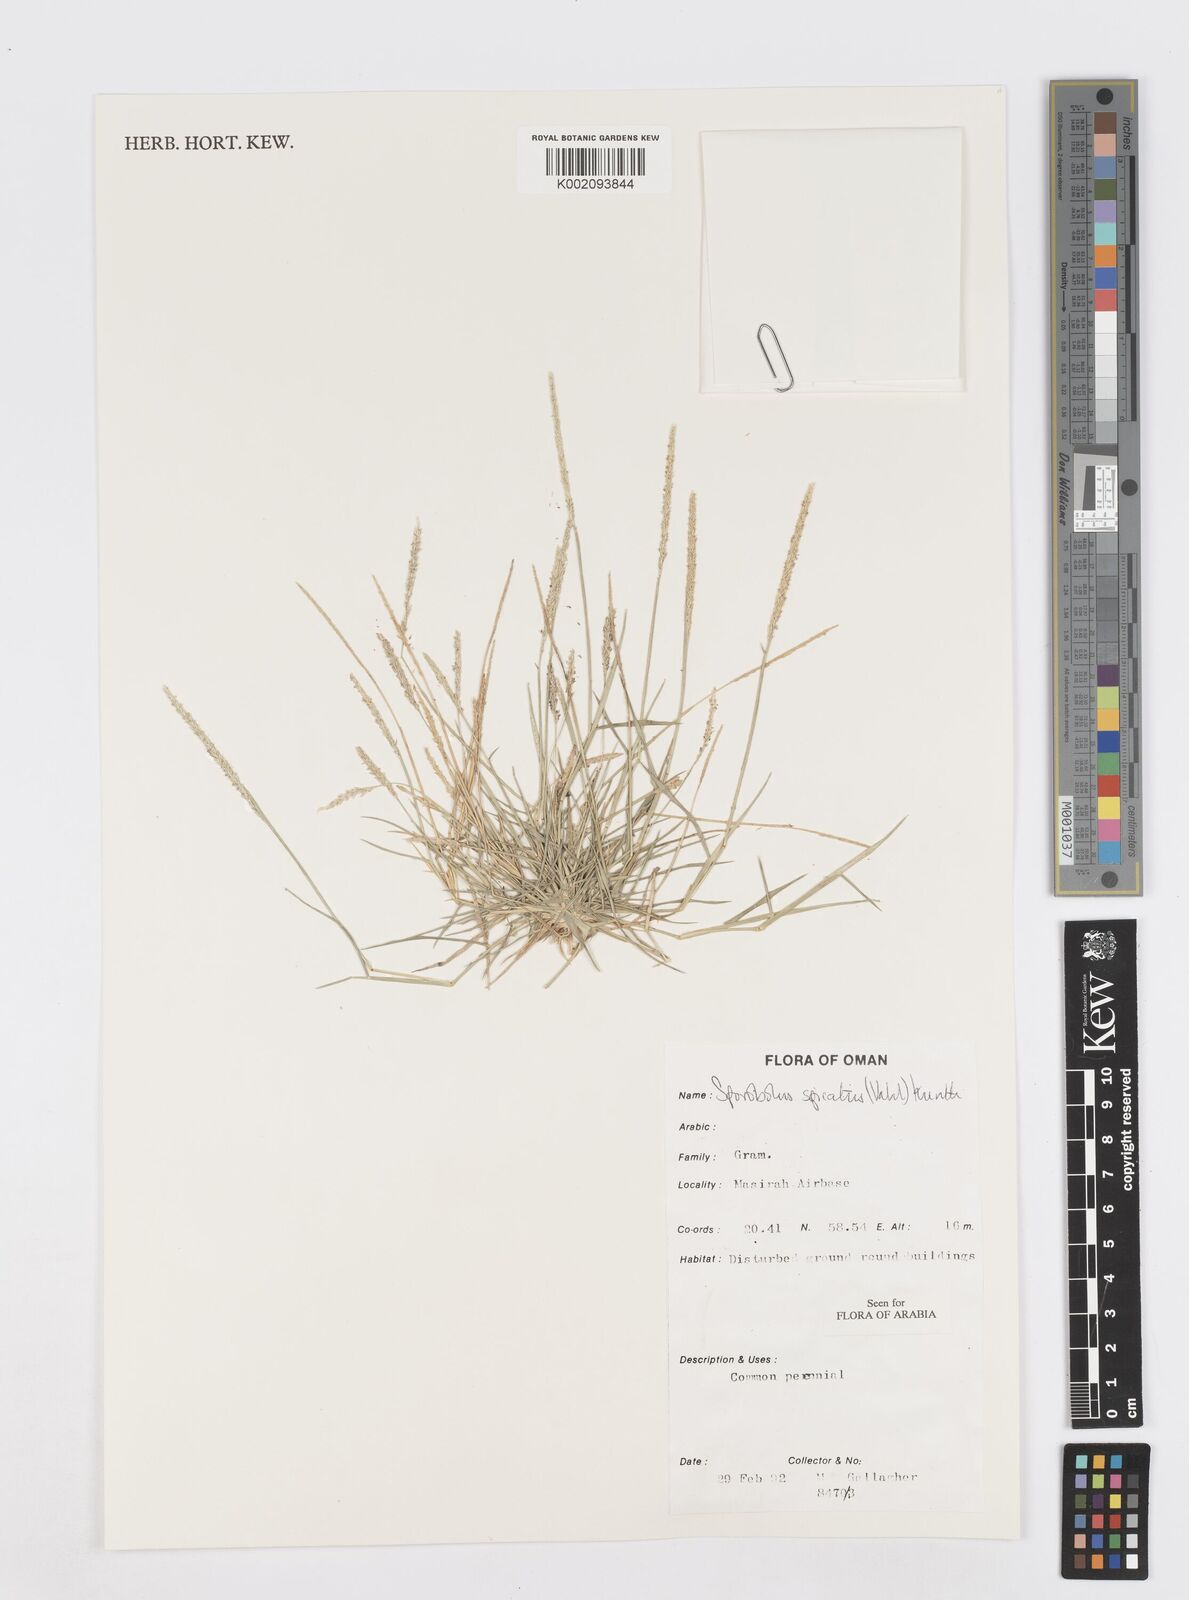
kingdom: Plantae
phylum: Tracheophyta
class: Liliopsida
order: Poales
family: Poaceae
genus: Sporobolus
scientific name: Sporobolus spicatus
